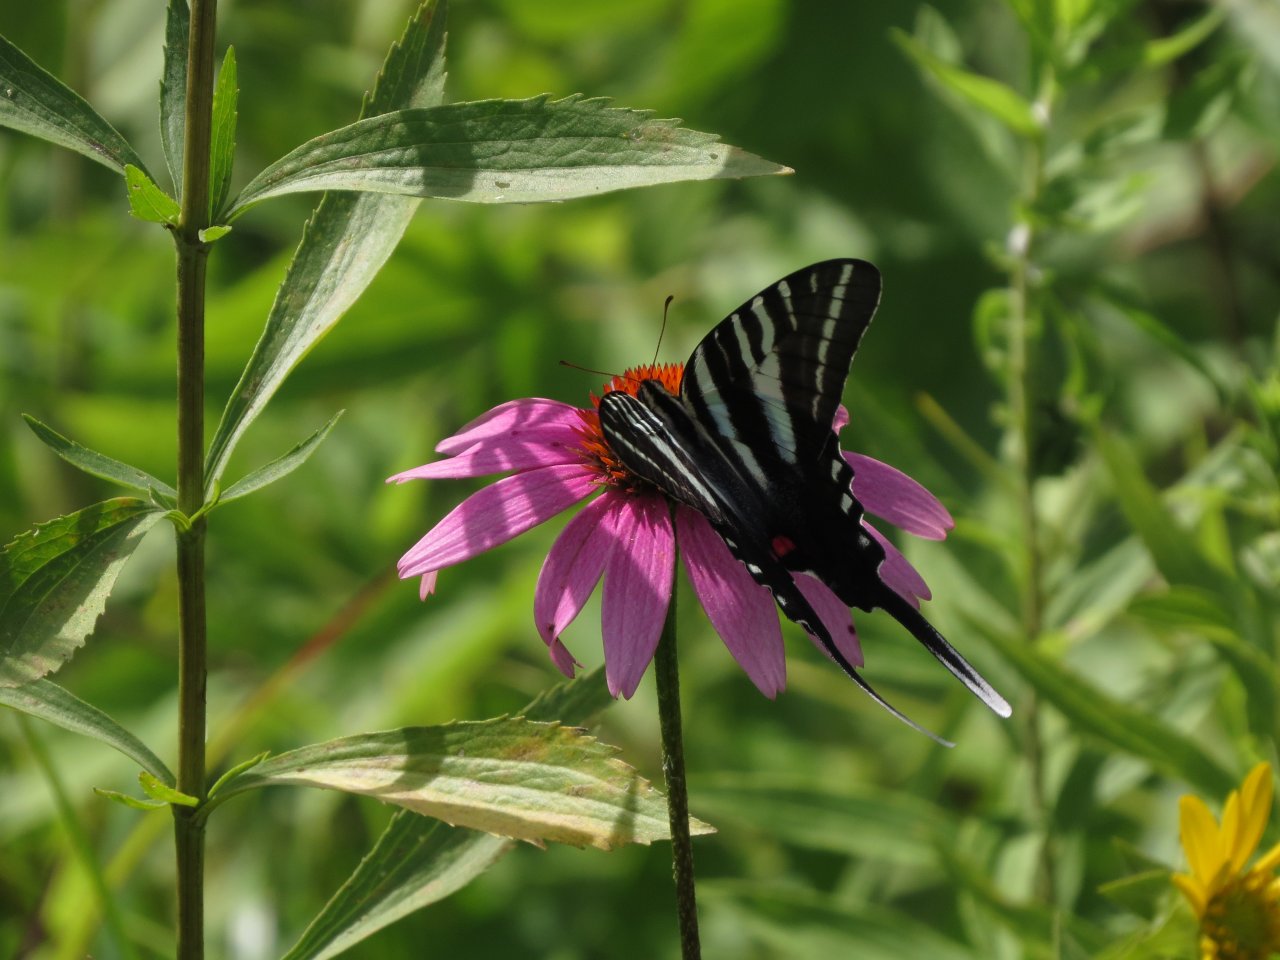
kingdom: Animalia
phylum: Arthropoda
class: Insecta
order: Lepidoptera
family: Papilionidae
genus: Protographium
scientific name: Protographium marcellus
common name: Zebra Swallowtail
